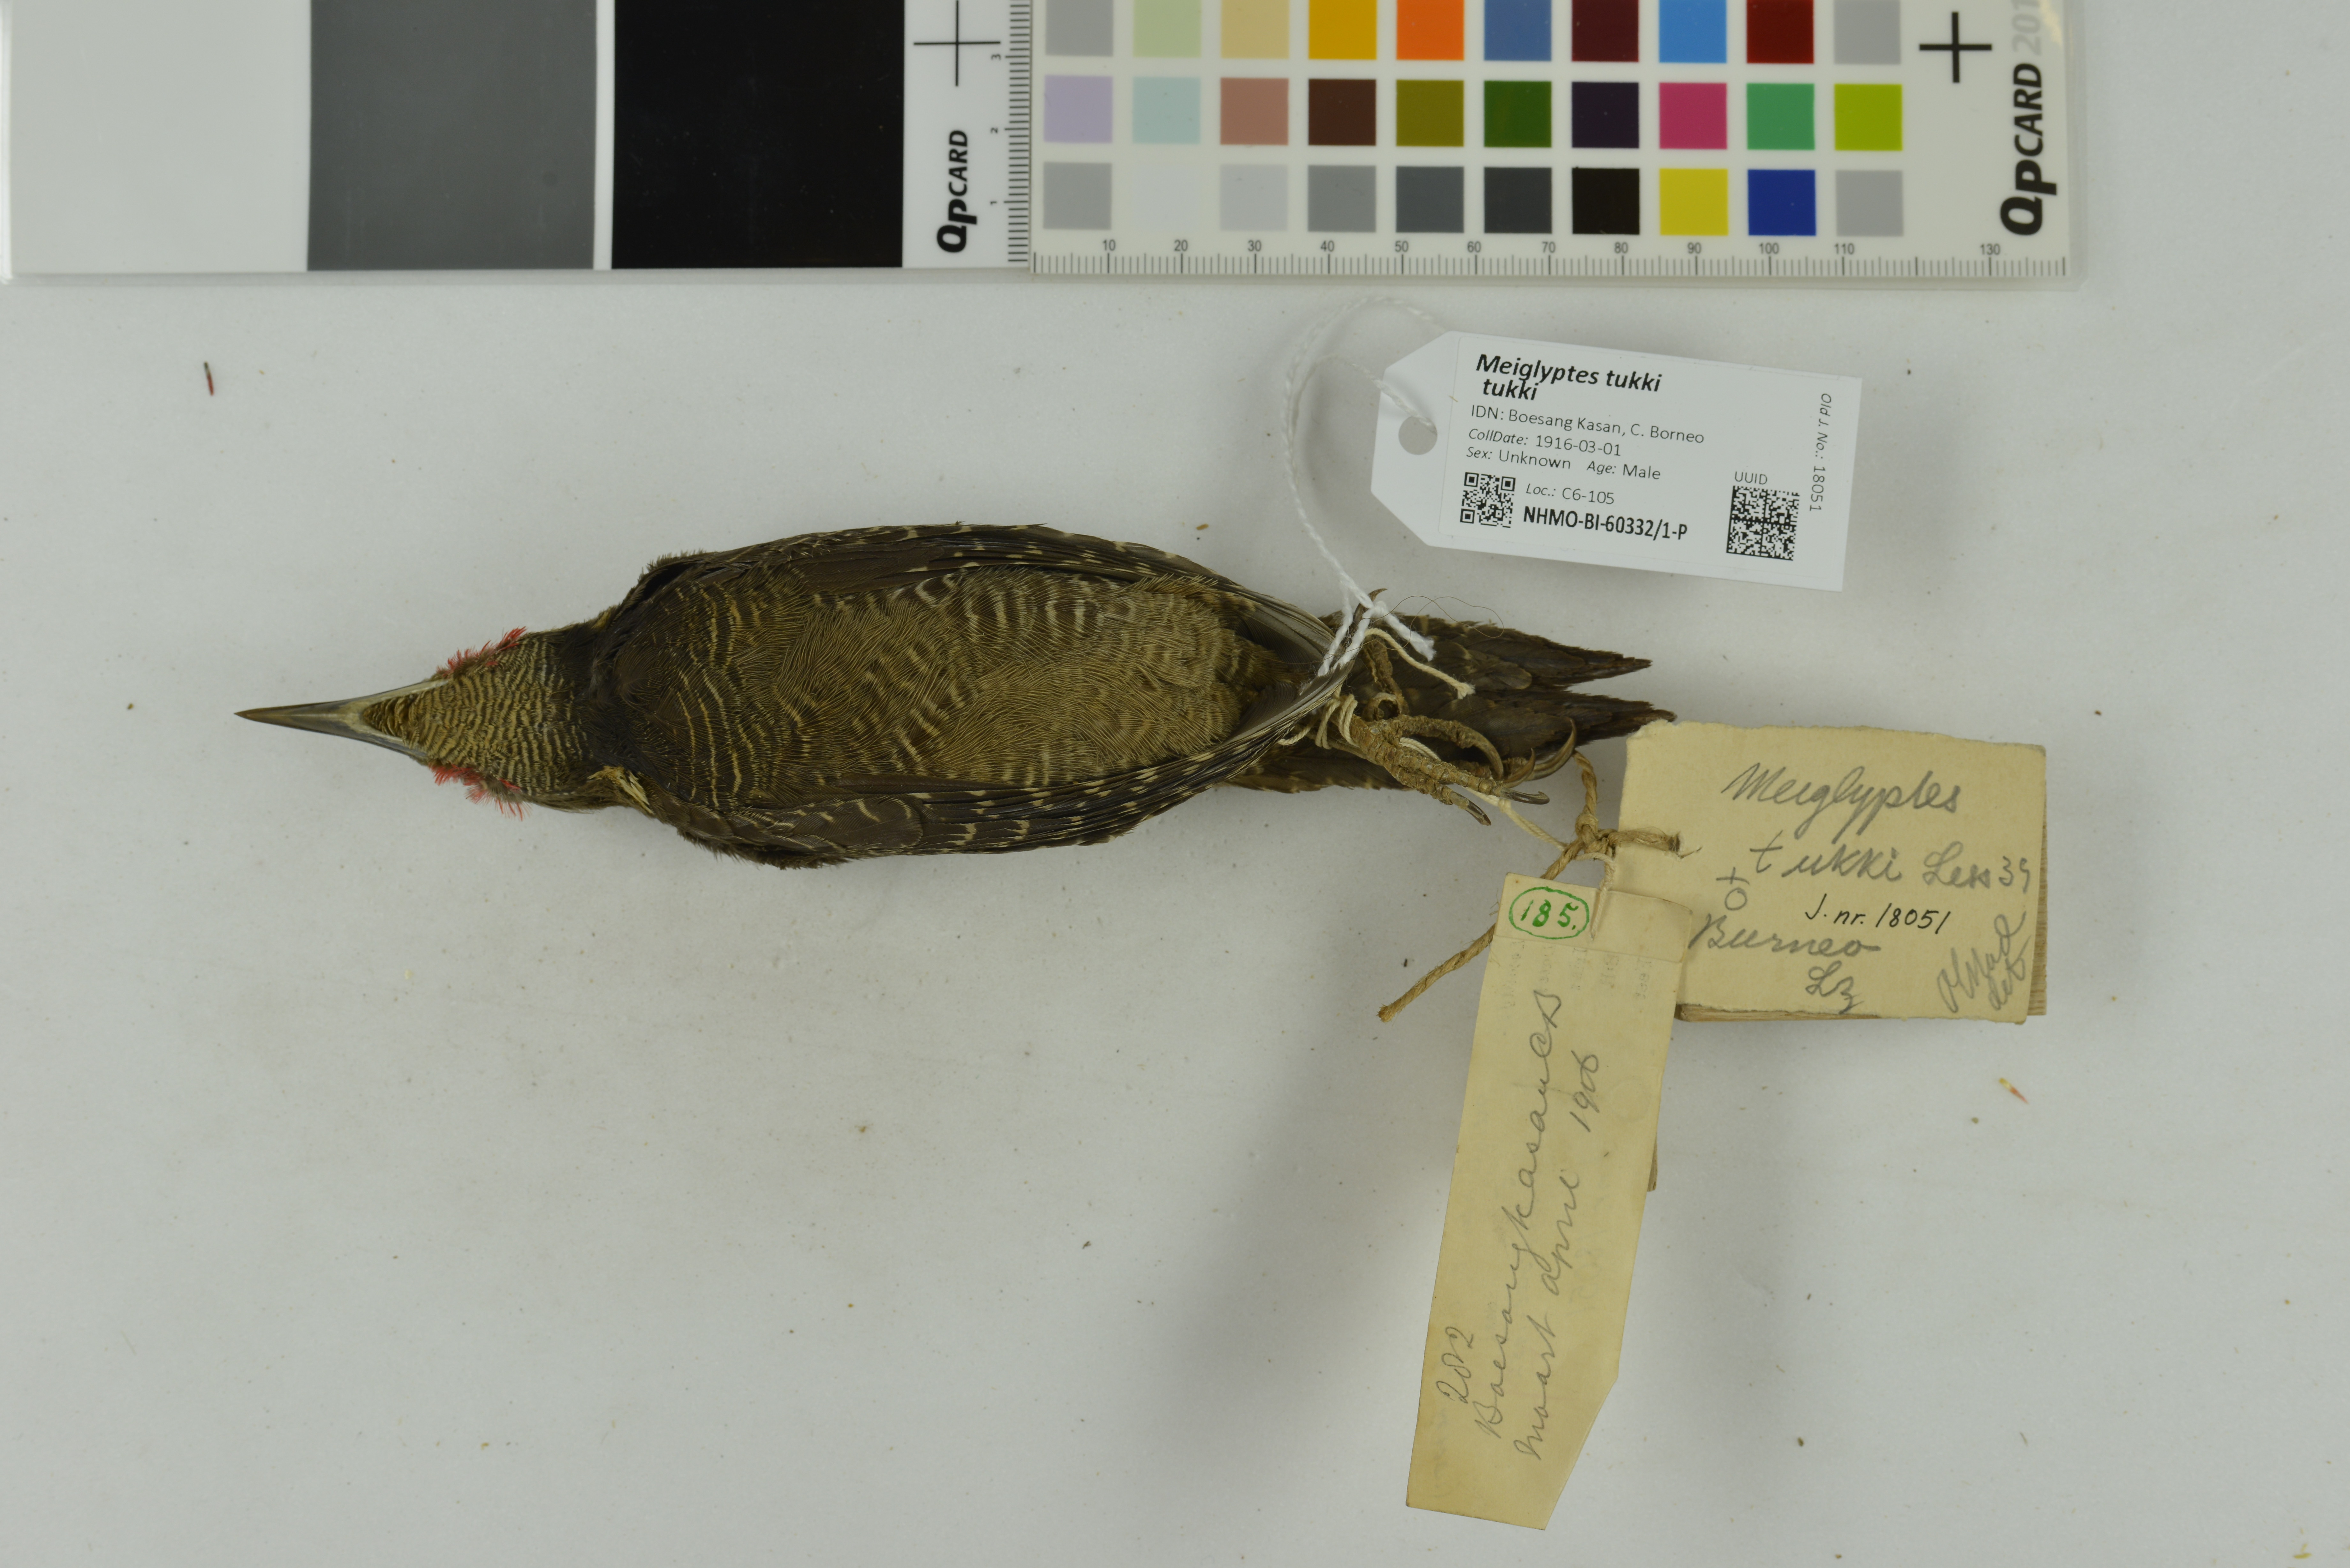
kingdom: Animalia
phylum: Chordata
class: Aves
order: Piciformes
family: Picidae
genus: Meiglyptes
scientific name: Meiglyptes tukki
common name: Buff-necked woodpecker
